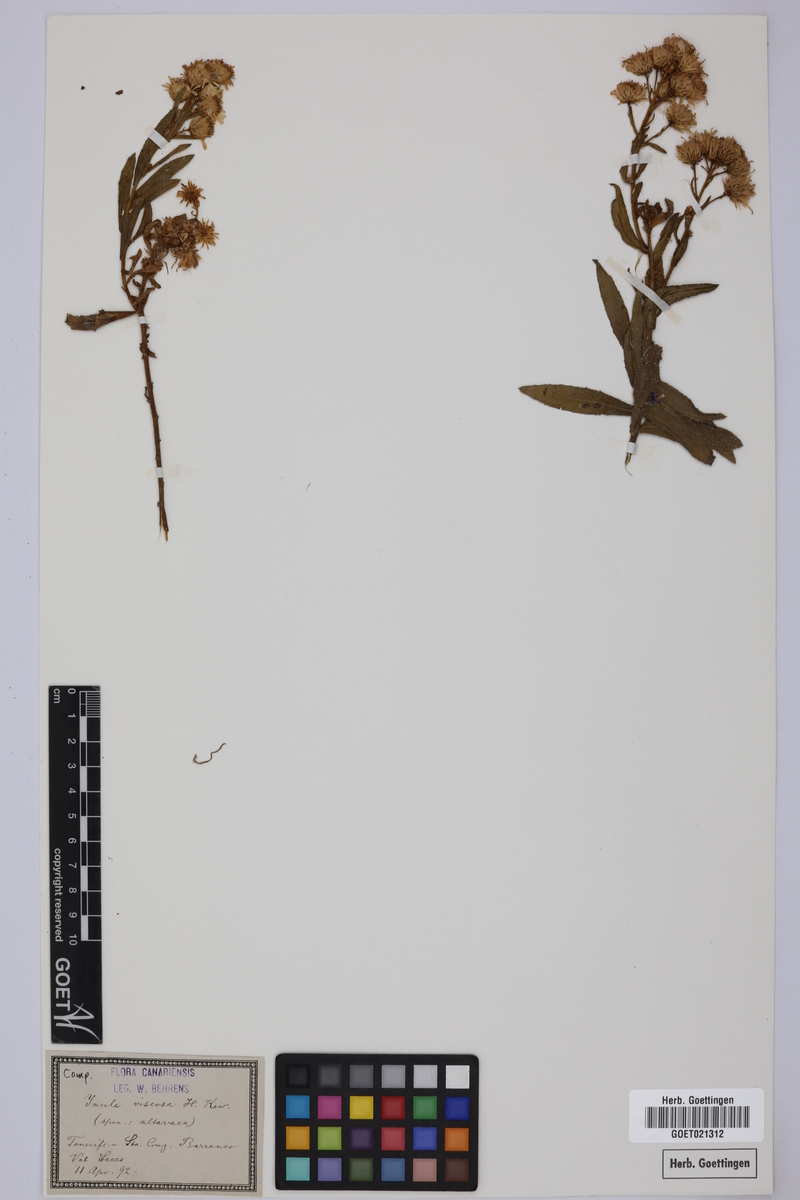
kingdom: Plantae
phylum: Tracheophyta
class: Magnoliopsida
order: Asterales
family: Asteraceae
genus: Dittrichia
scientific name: Dittrichia viscosa
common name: Woody fleabane
